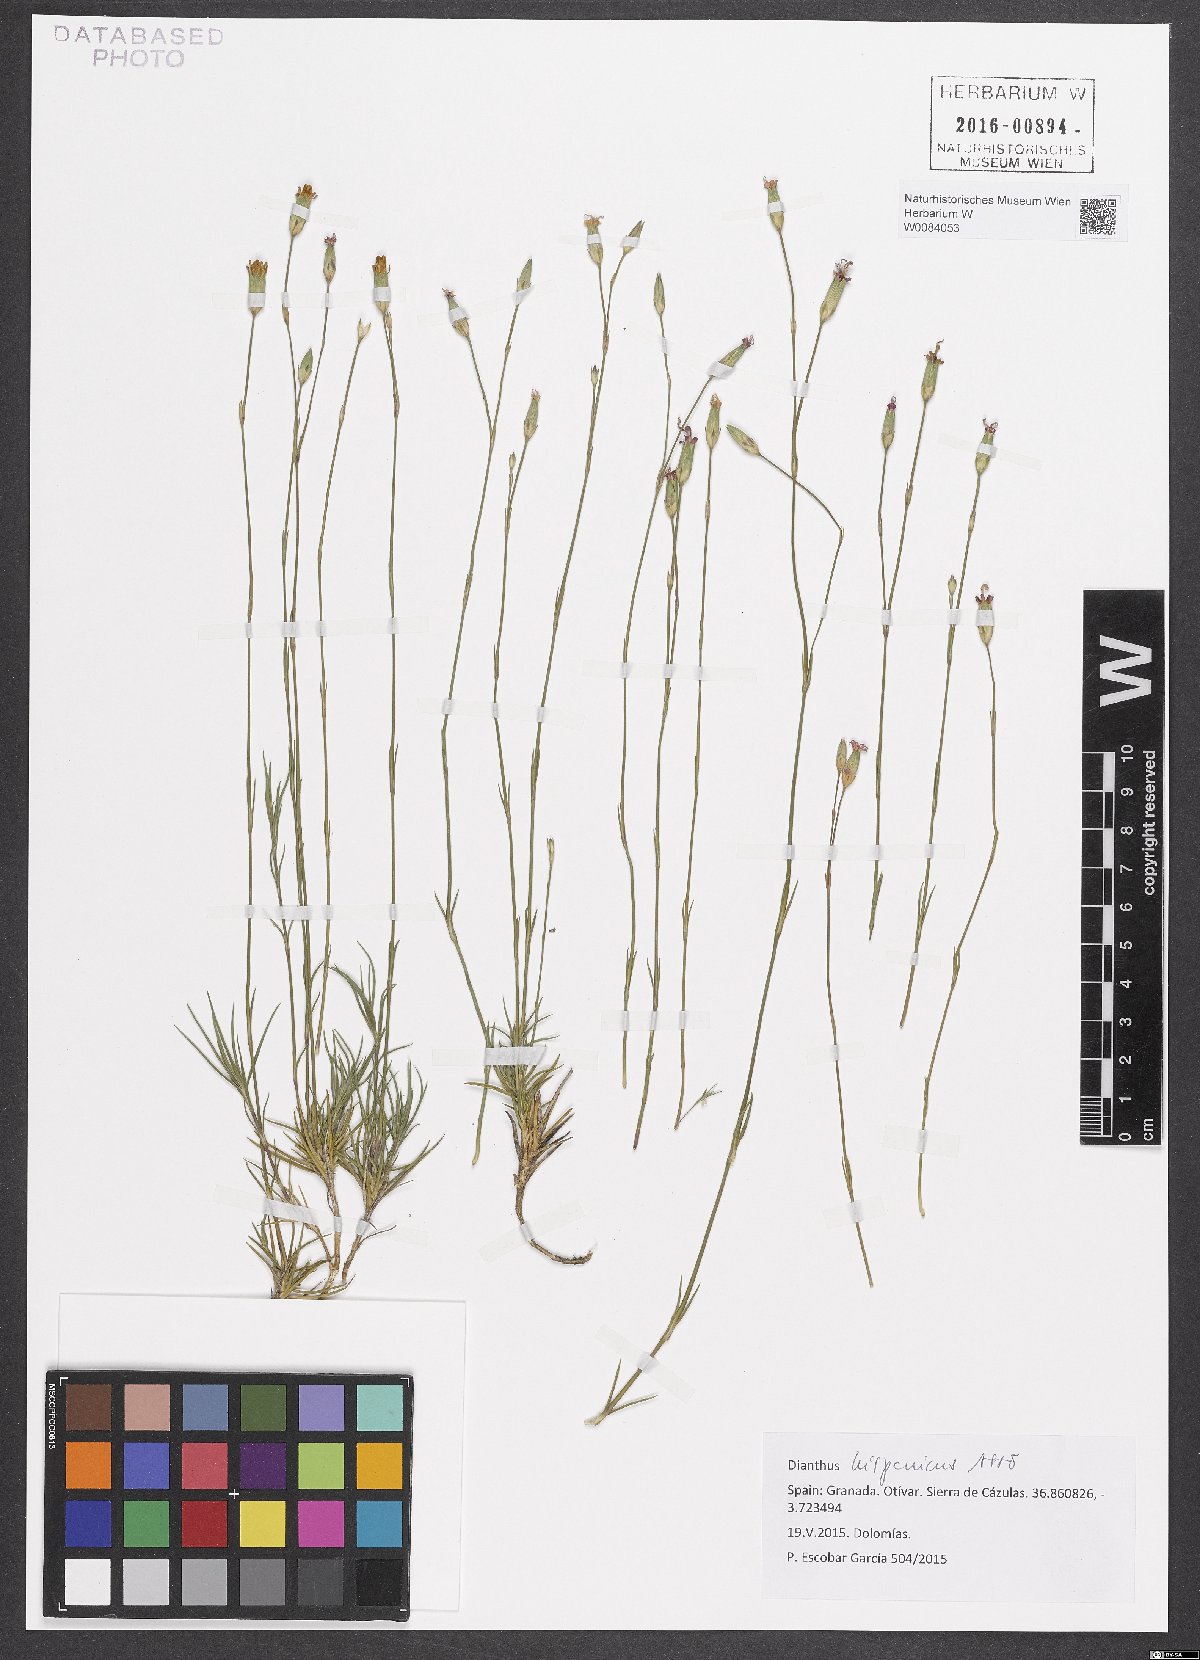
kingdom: Plantae
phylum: Tracheophyta
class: Magnoliopsida
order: Caryophyllales
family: Caryophyllaceae
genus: Dianthus
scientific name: Dianthus pungens
